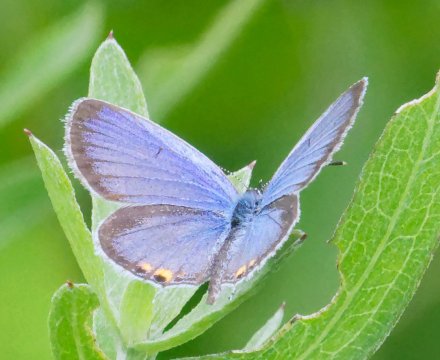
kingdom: Animalia
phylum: Arthropoda
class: Insecta
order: Lepidoptera
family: Lycaenidae
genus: Elkalyce
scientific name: Elkalyce comyntas
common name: Eastern Tailed-Blue
